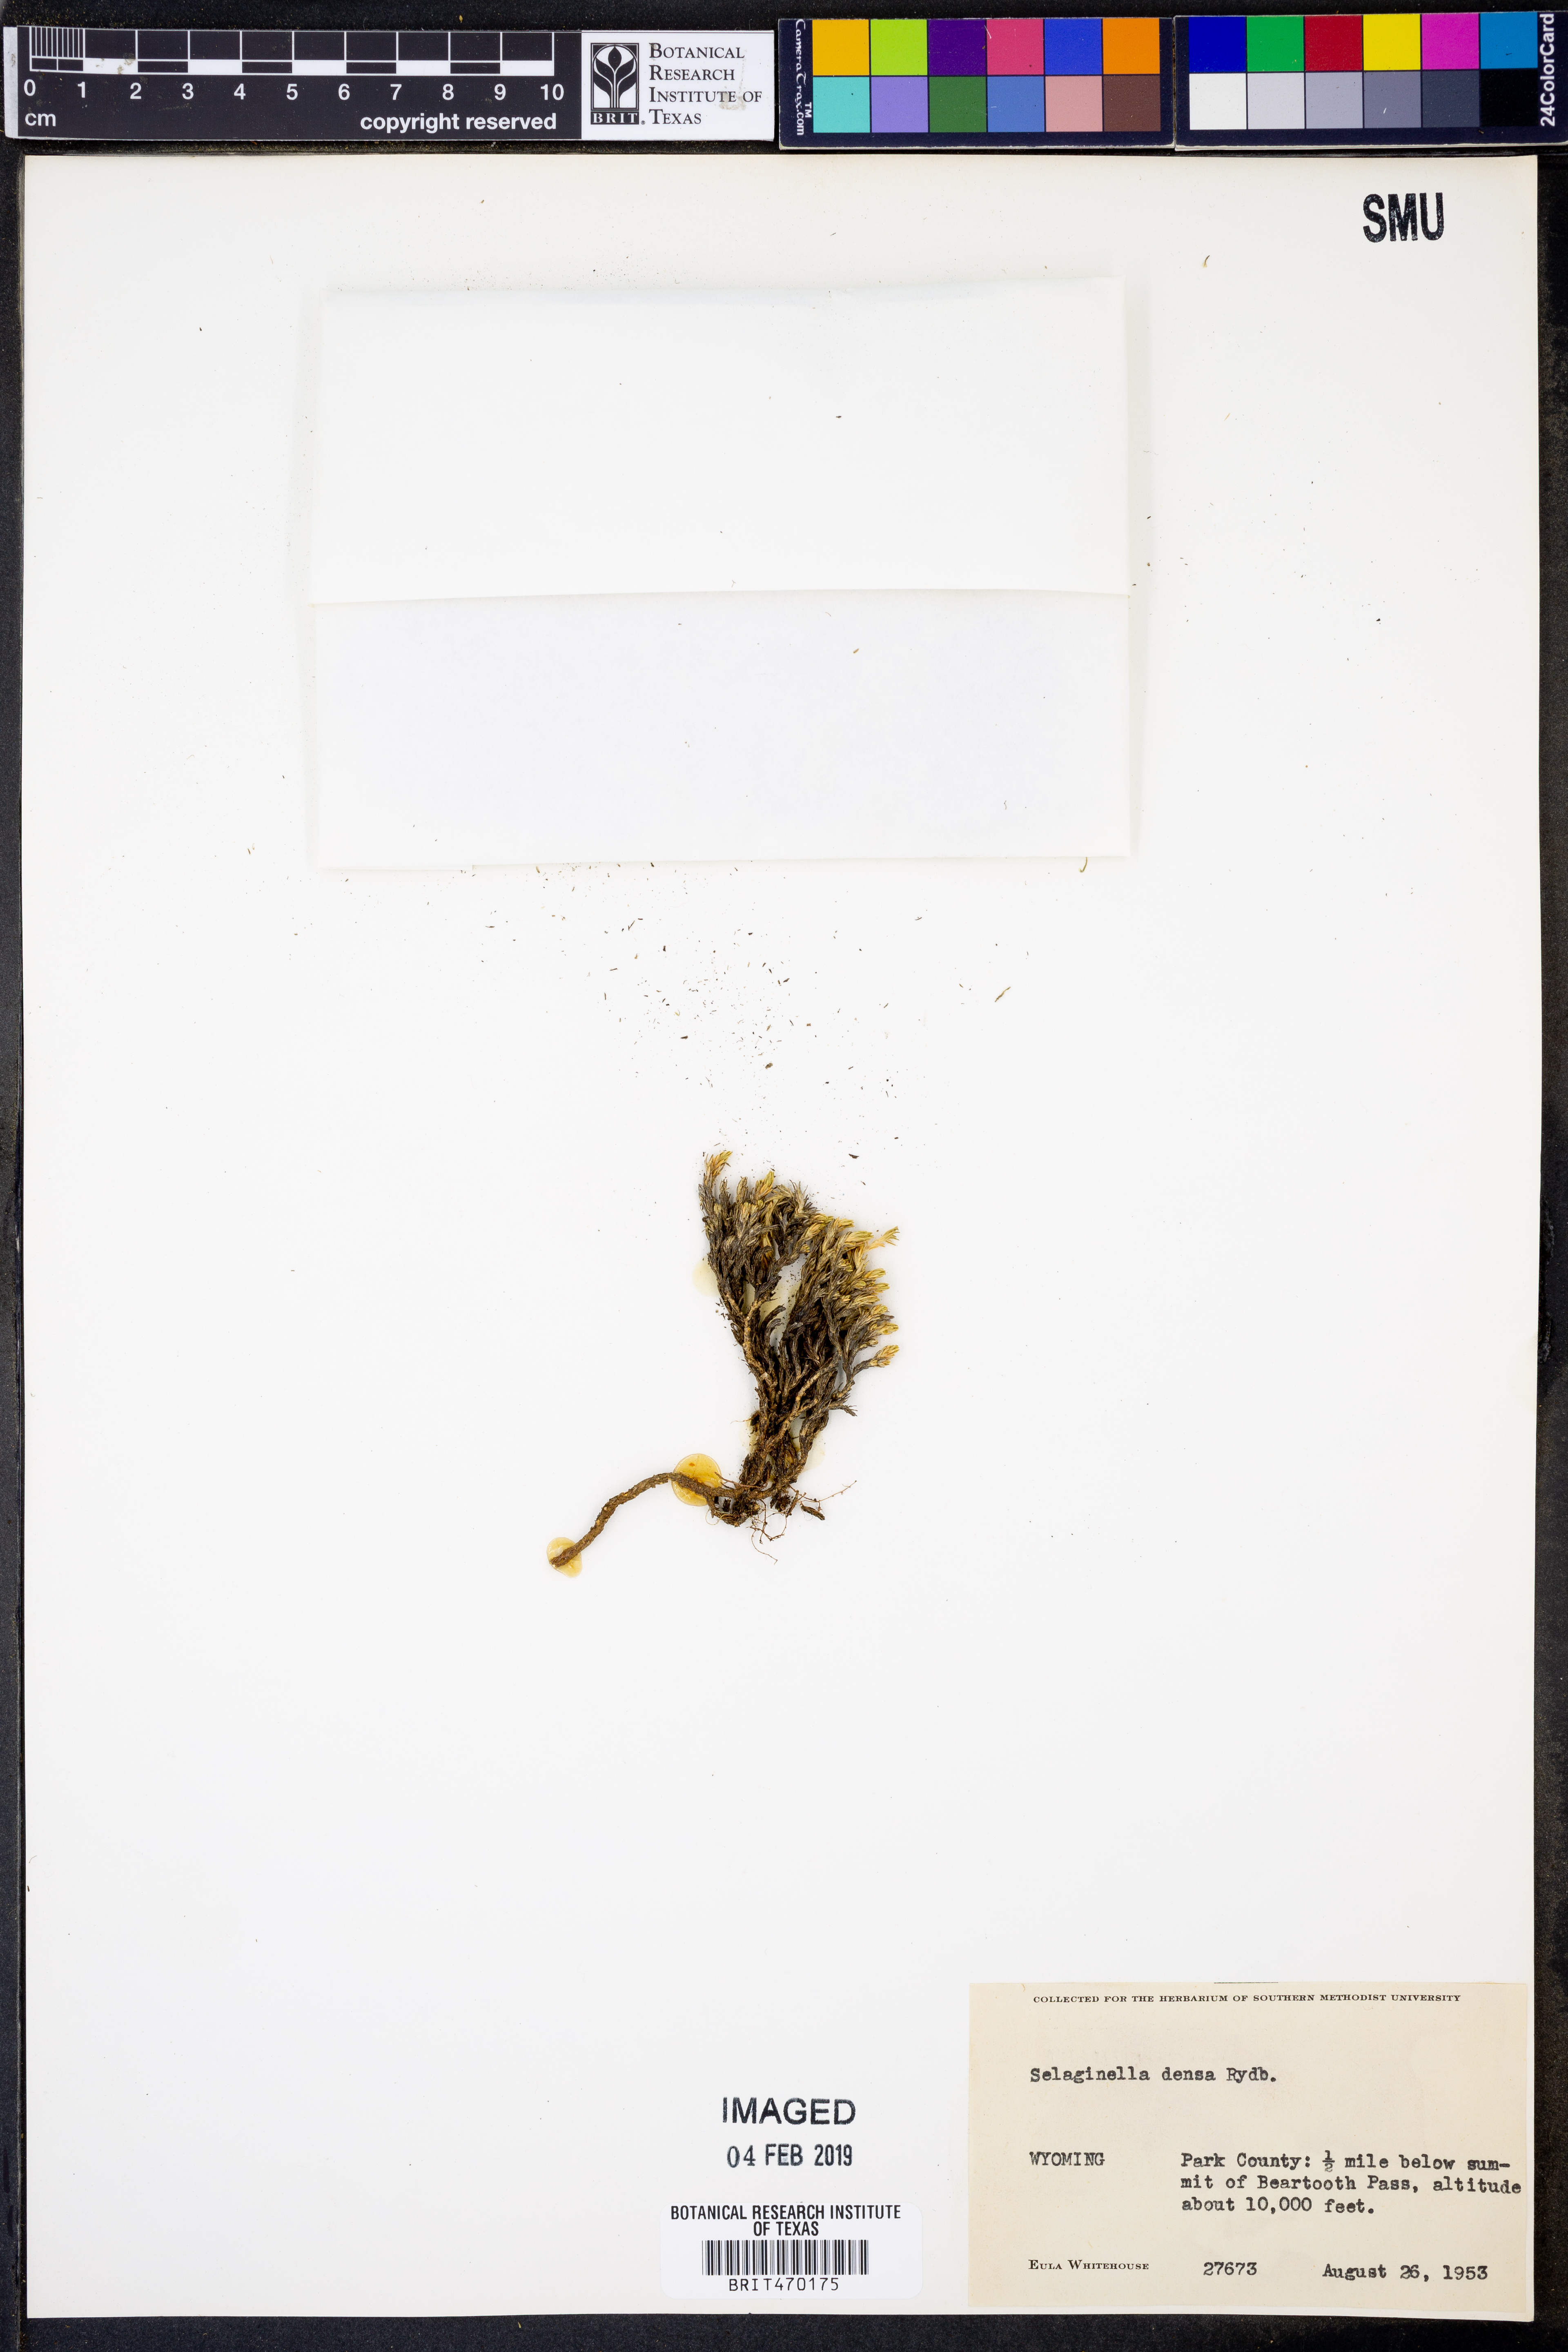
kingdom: Plantae
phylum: Tracheophyta
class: Lycopodiopsida
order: Selaginellales
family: Selaginellaceae
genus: Selaginella
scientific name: Selaginella densa
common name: Mountain spike-moss
